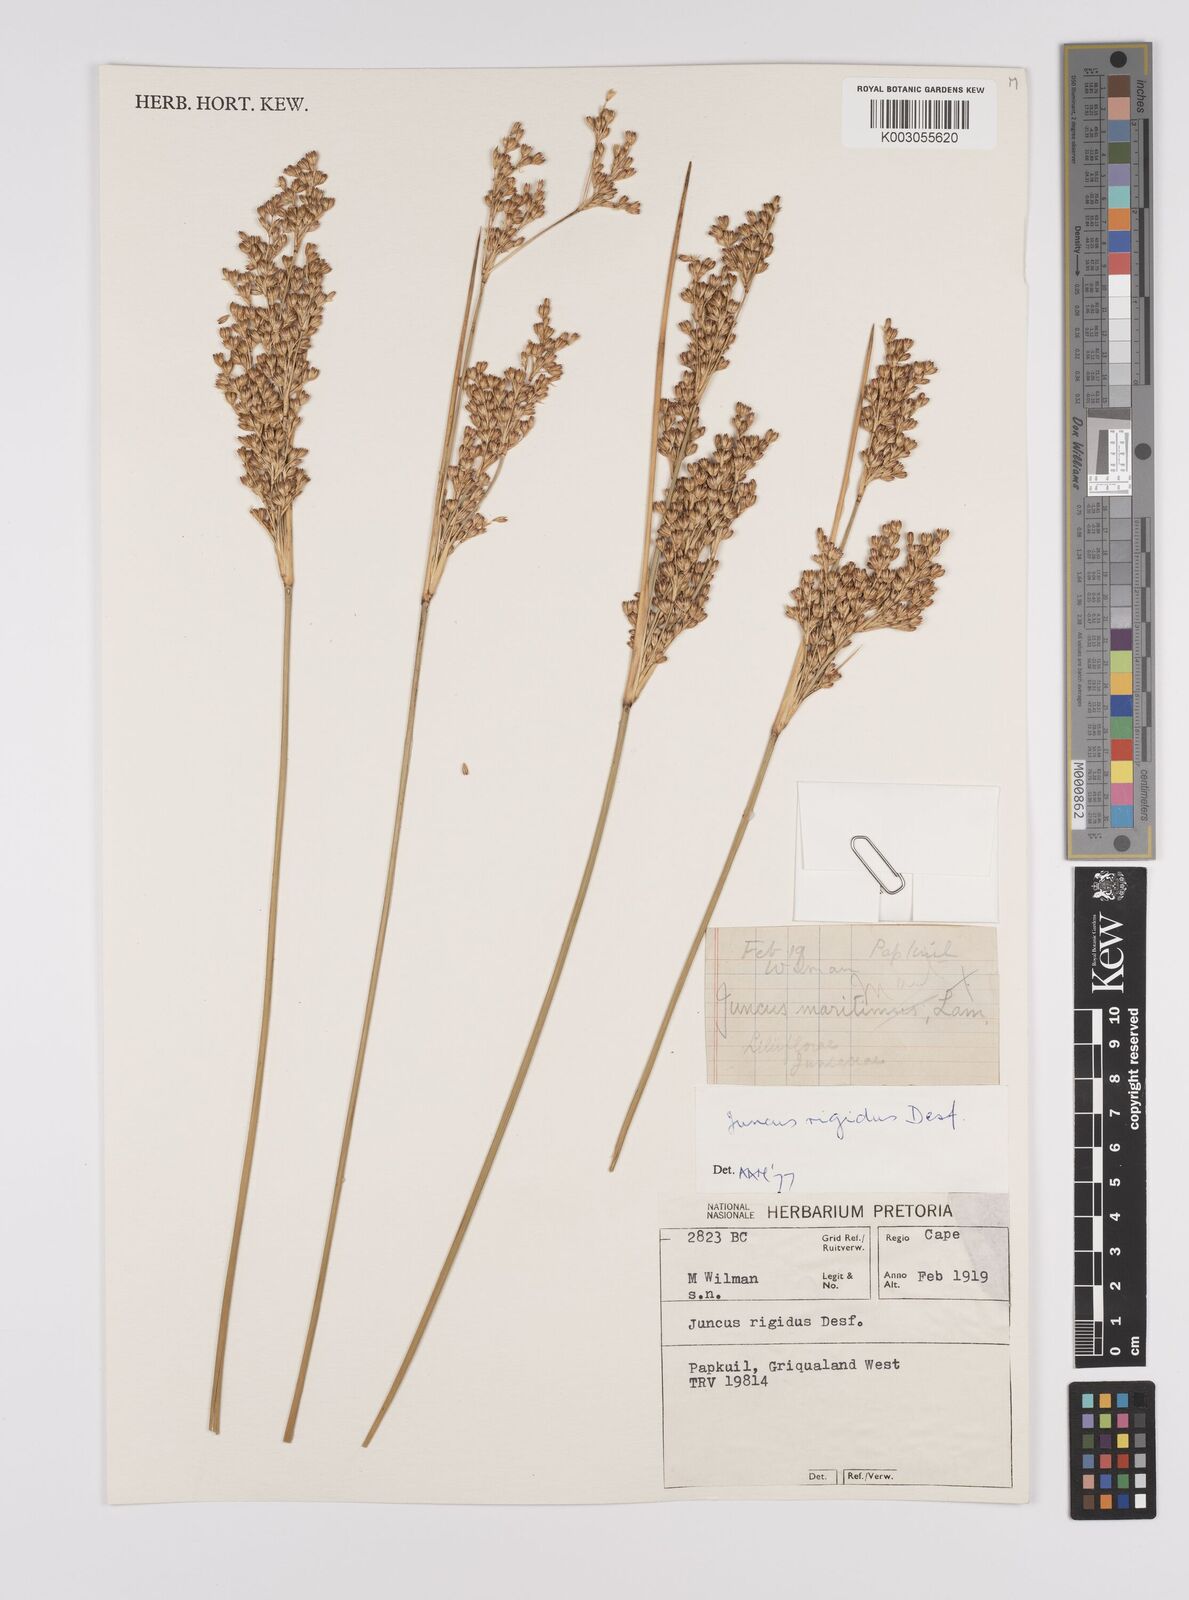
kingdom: Plantae
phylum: Tracheophyta
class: Liliopsida
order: Poales
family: Juncaceae
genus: Juncus
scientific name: Juncus rigidus
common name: Hard sea rush
